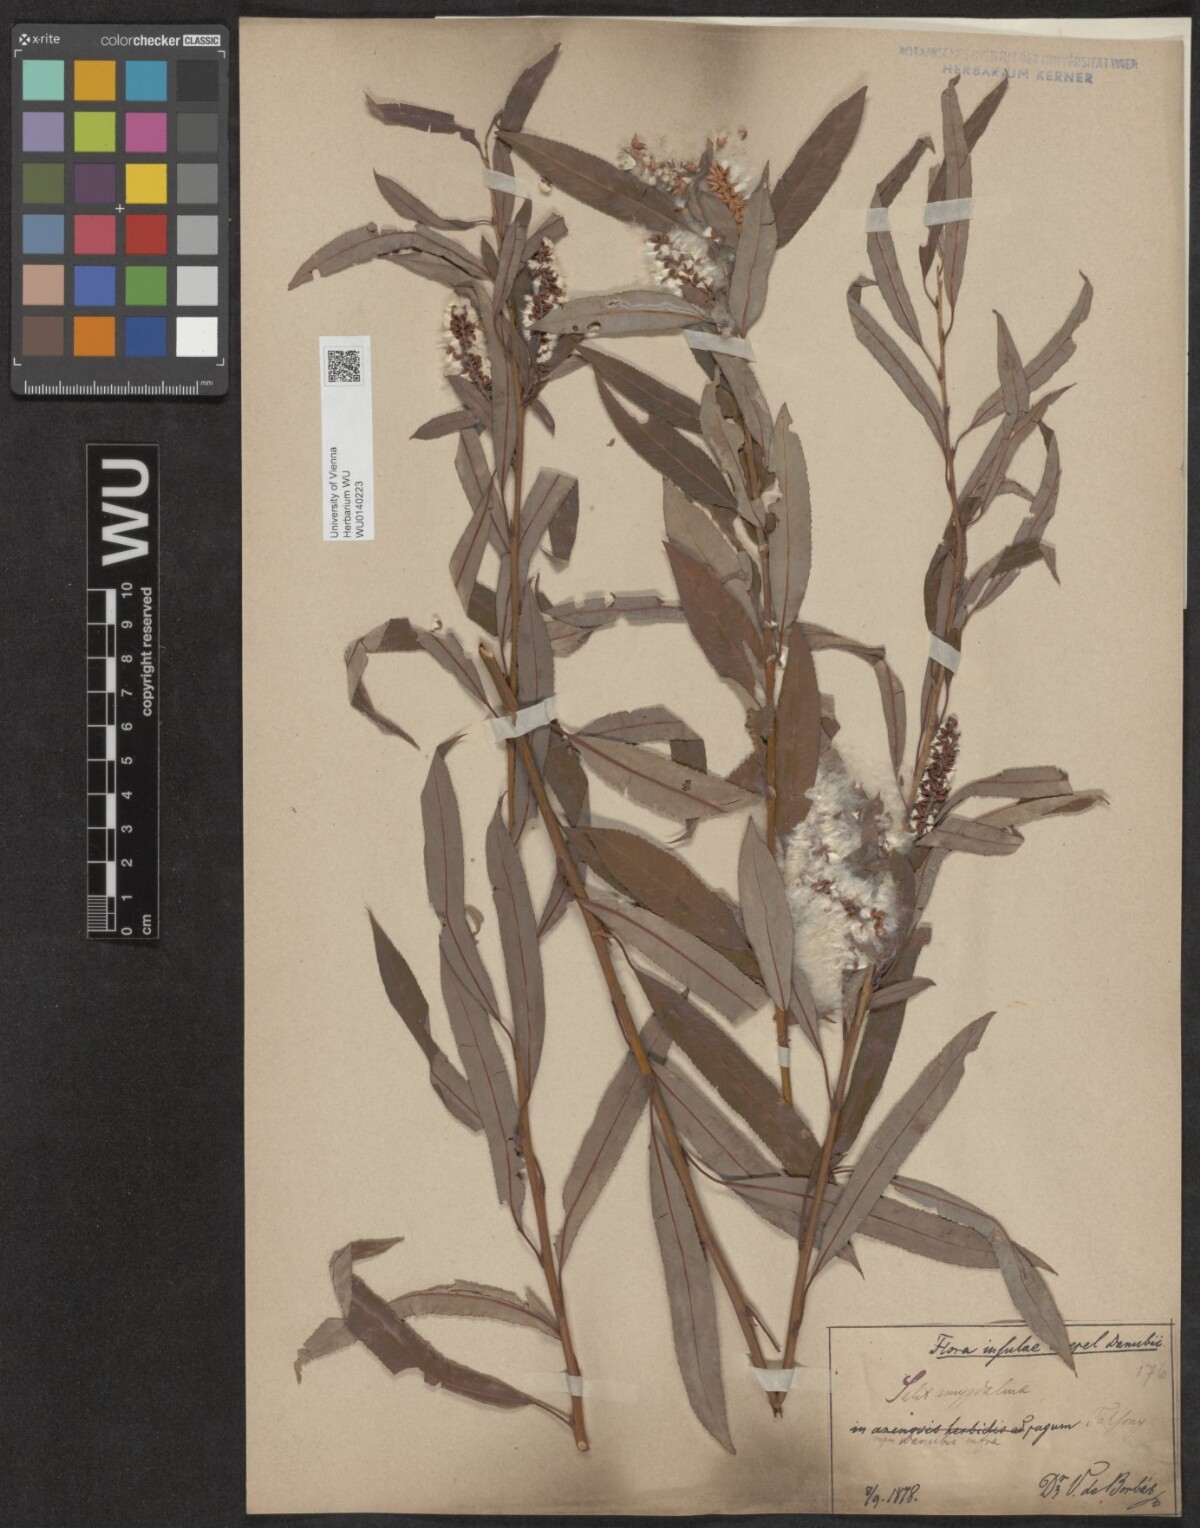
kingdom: Plantae
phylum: Tracheophyta
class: Magnoliopsida
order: Malpighiales
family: Salicaceae
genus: Salix
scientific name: Salix triandra
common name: Almond willow
